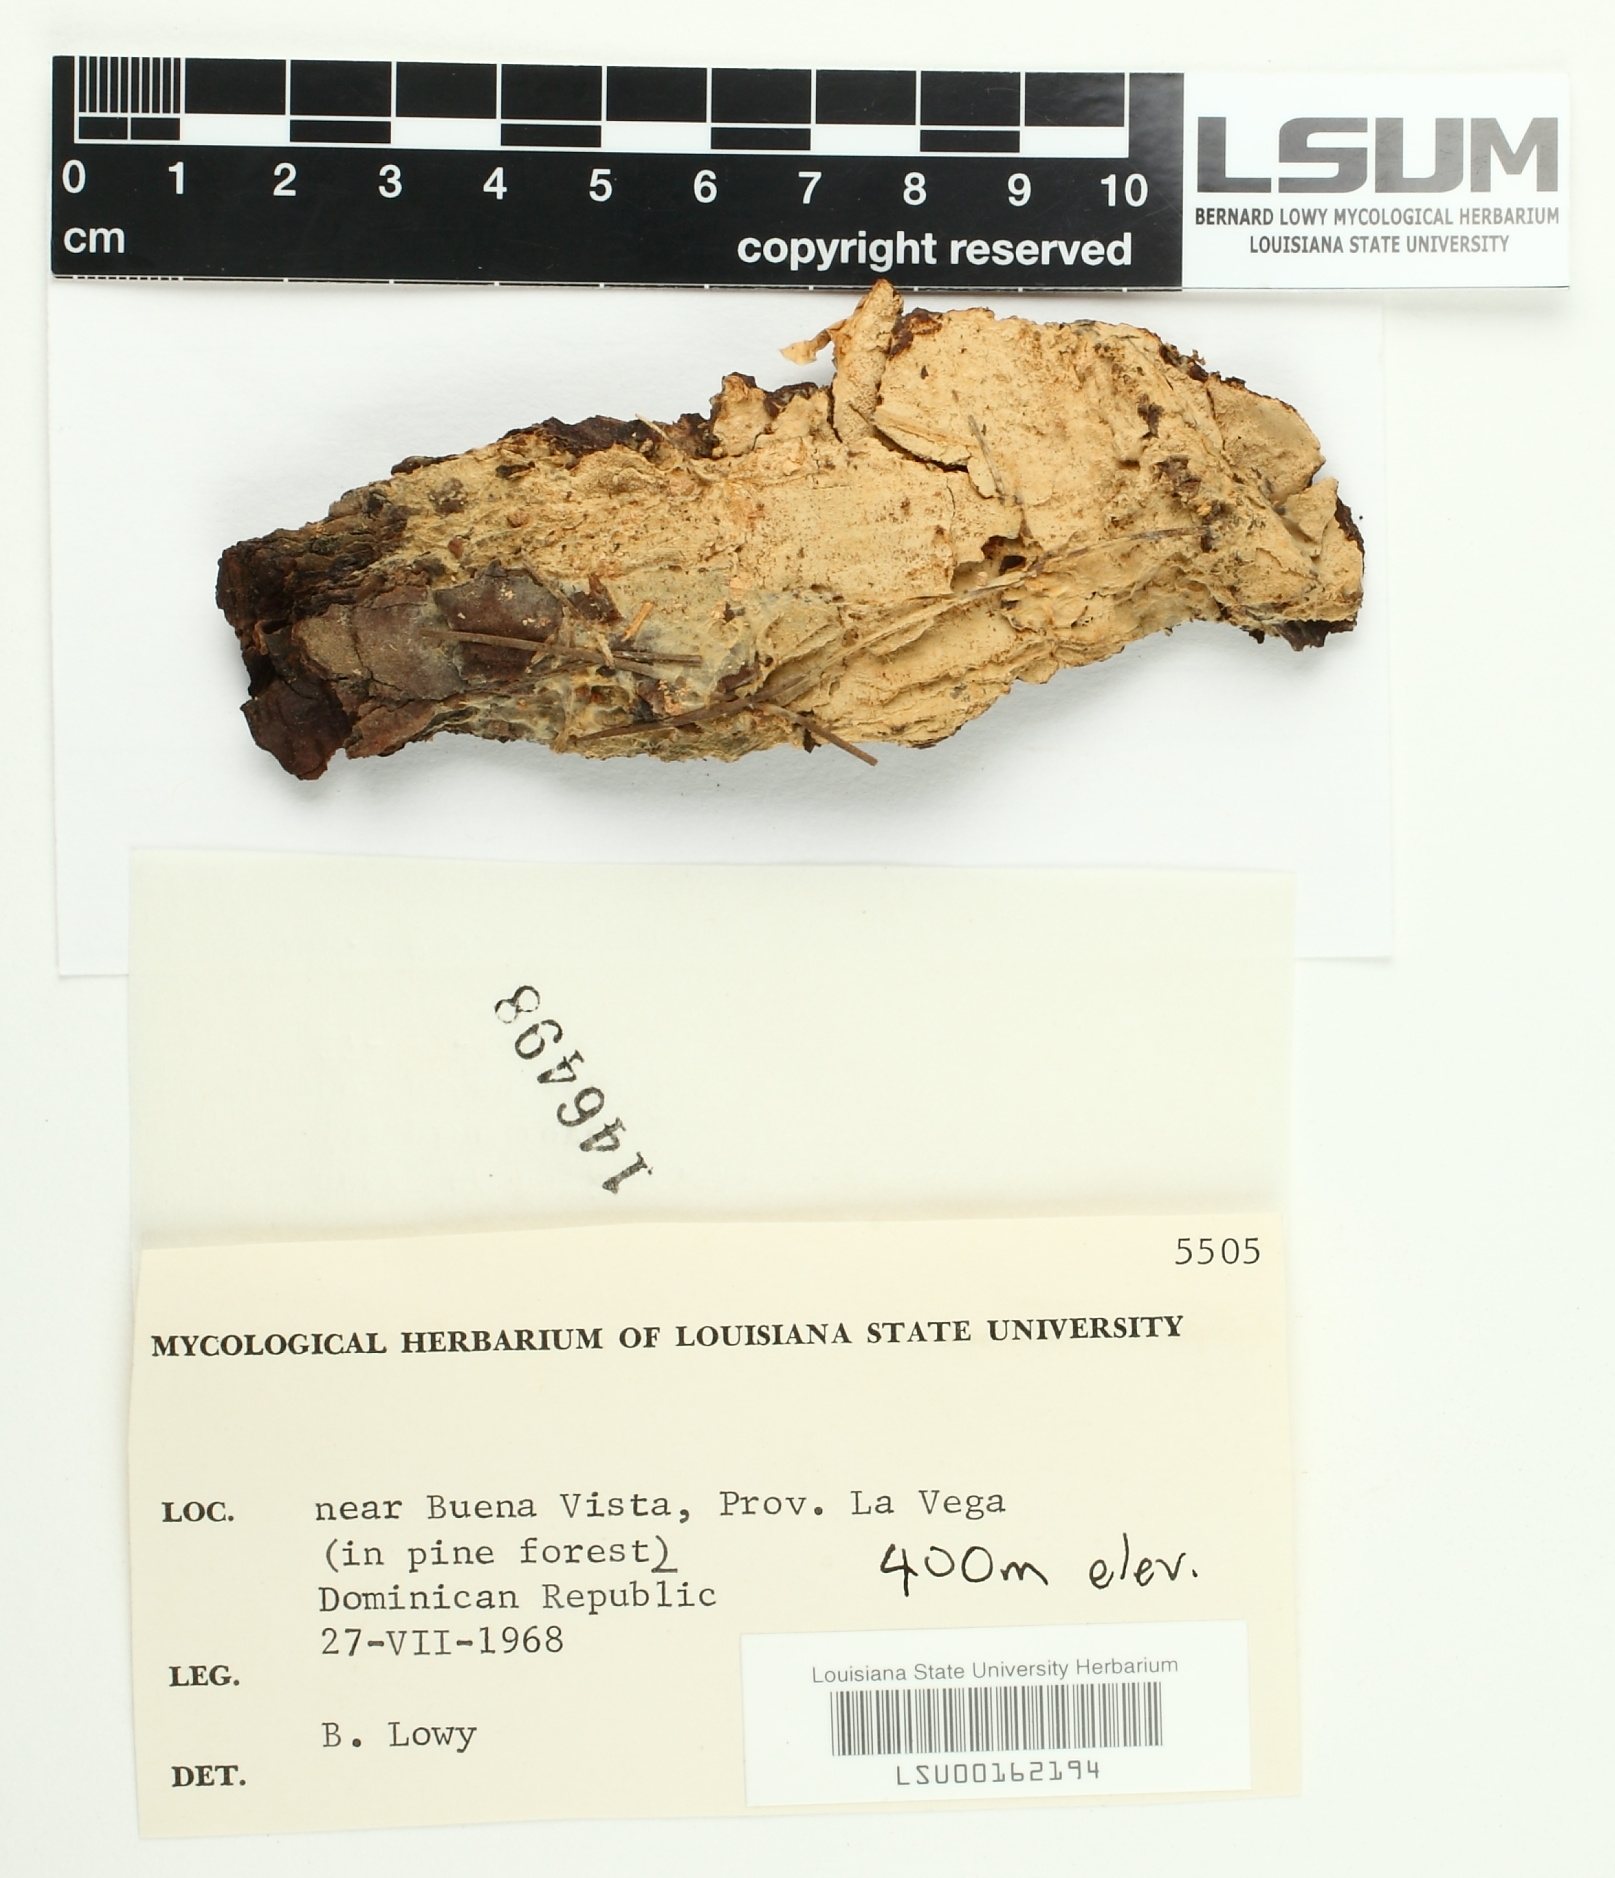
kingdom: Fungi
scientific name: Fungi
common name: Fungi
